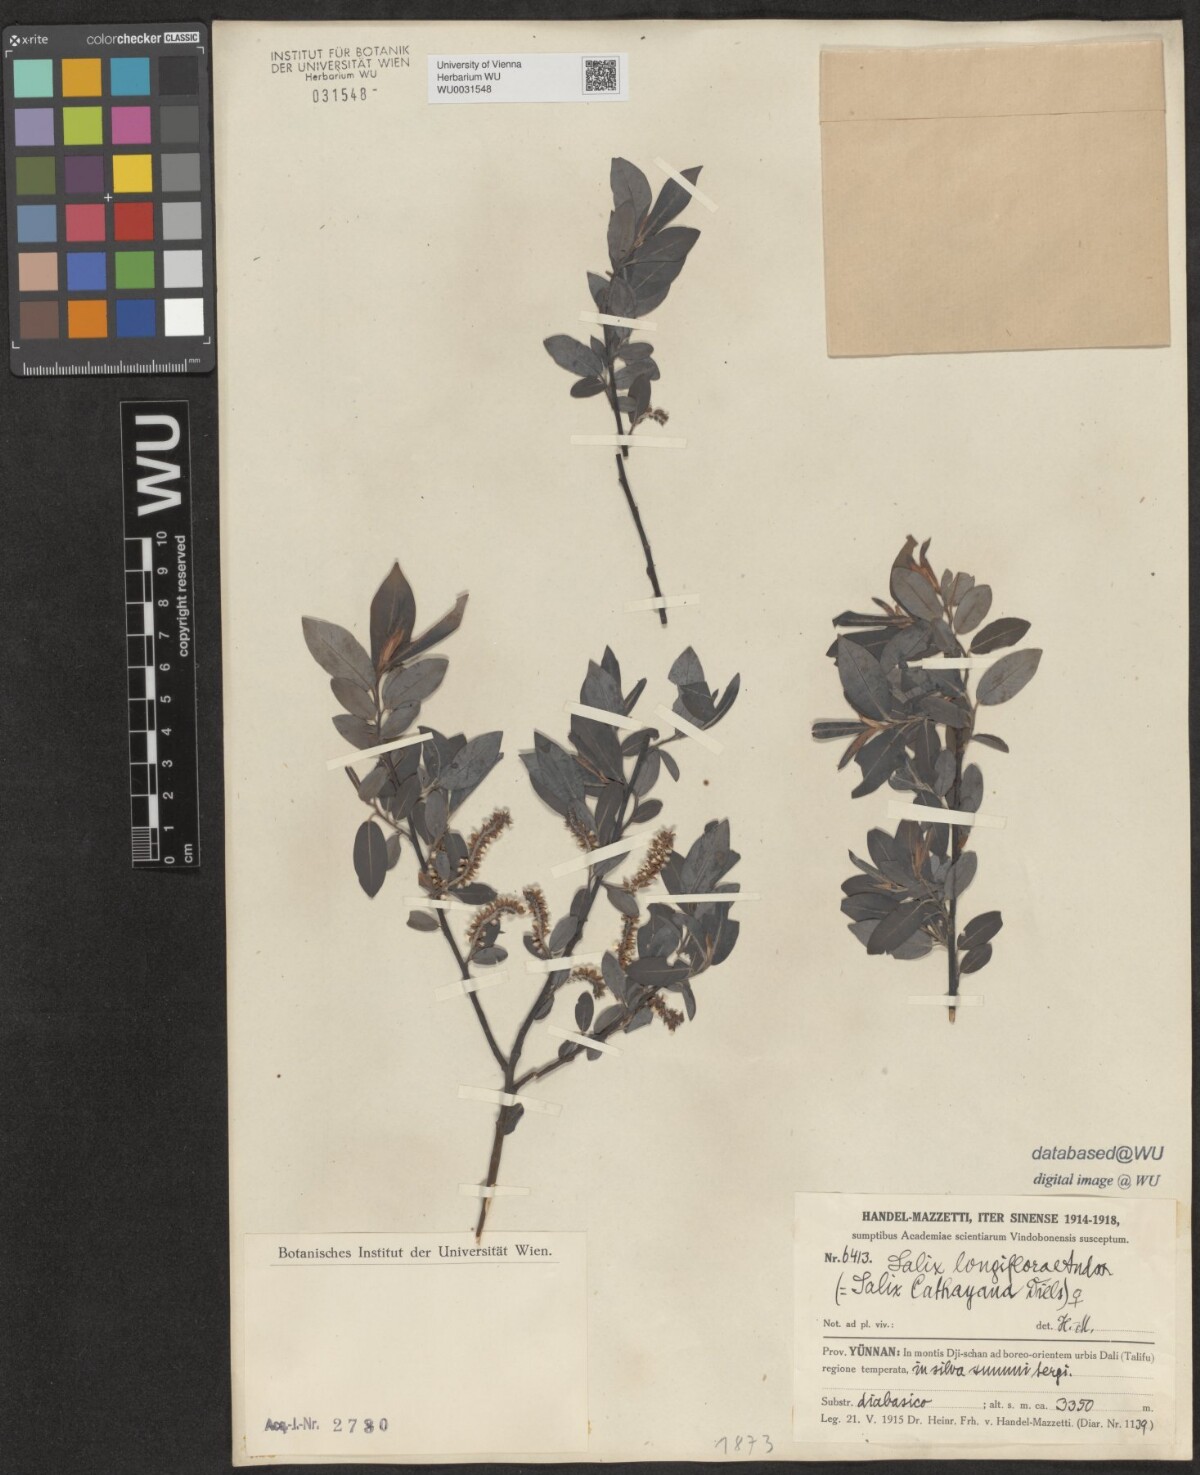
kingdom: Plantae
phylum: Tracheophyta
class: Magnoliopsida
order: Malpighiales
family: Salicaceae
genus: Salix
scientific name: Salix longiflora
